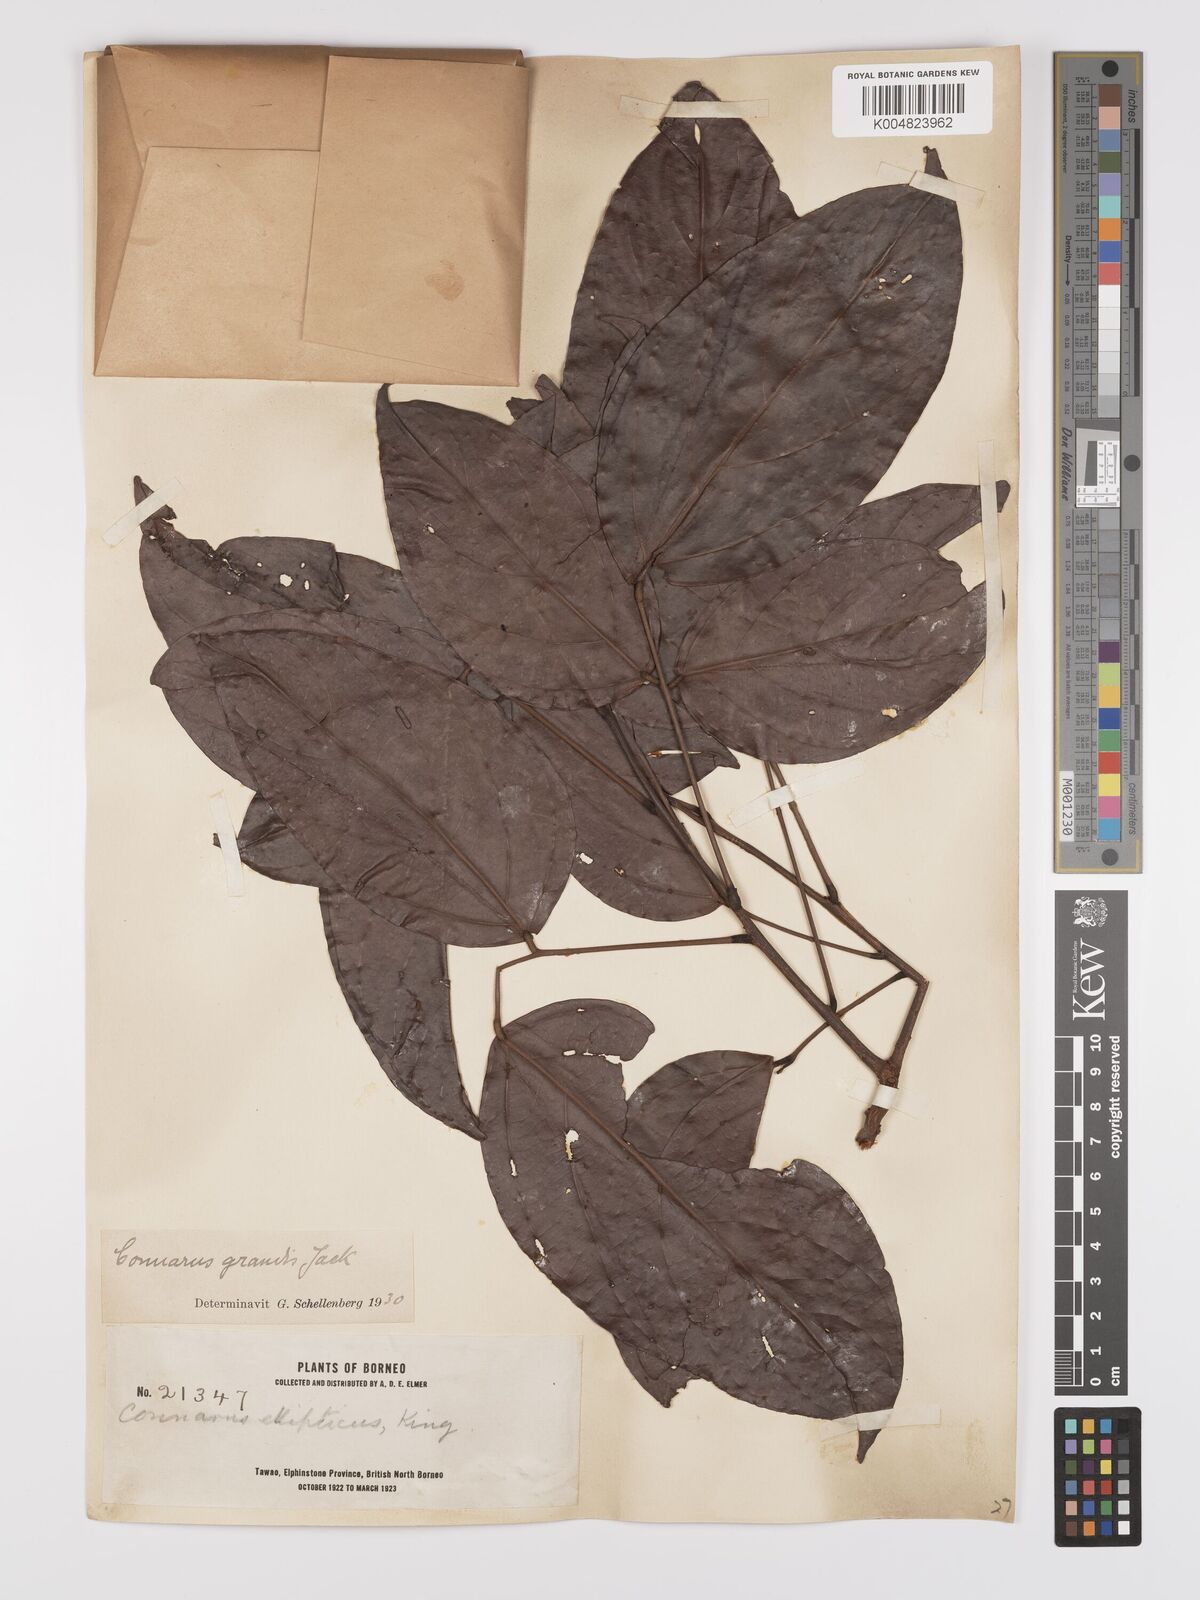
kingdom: Plantae
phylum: Tracheophyta
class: Magnoliopsida
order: Oxalidales
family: Connaraceae
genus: Connarus
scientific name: Connarus semidecandrus
